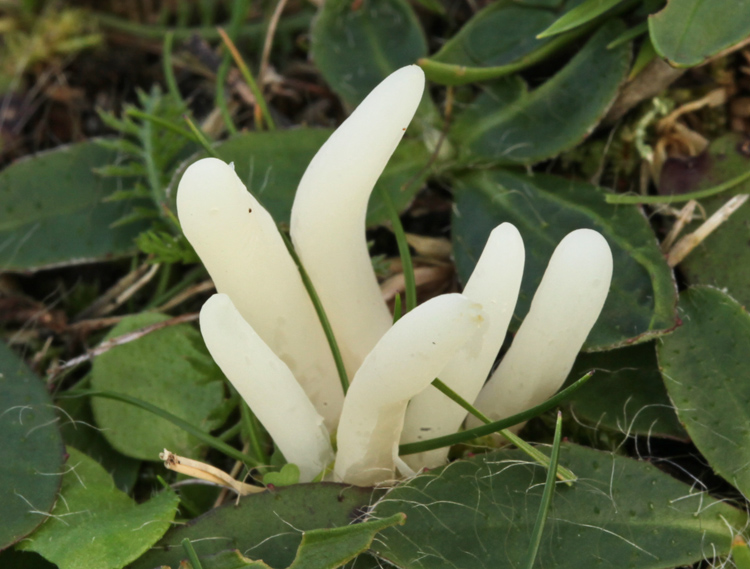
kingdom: Fungi
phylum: Basidiomycota
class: Agaricomycetes
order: Agaricales
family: Clavariaceae
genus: Clavaria
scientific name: Clavaria falcata
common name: hvid køllesvamp
